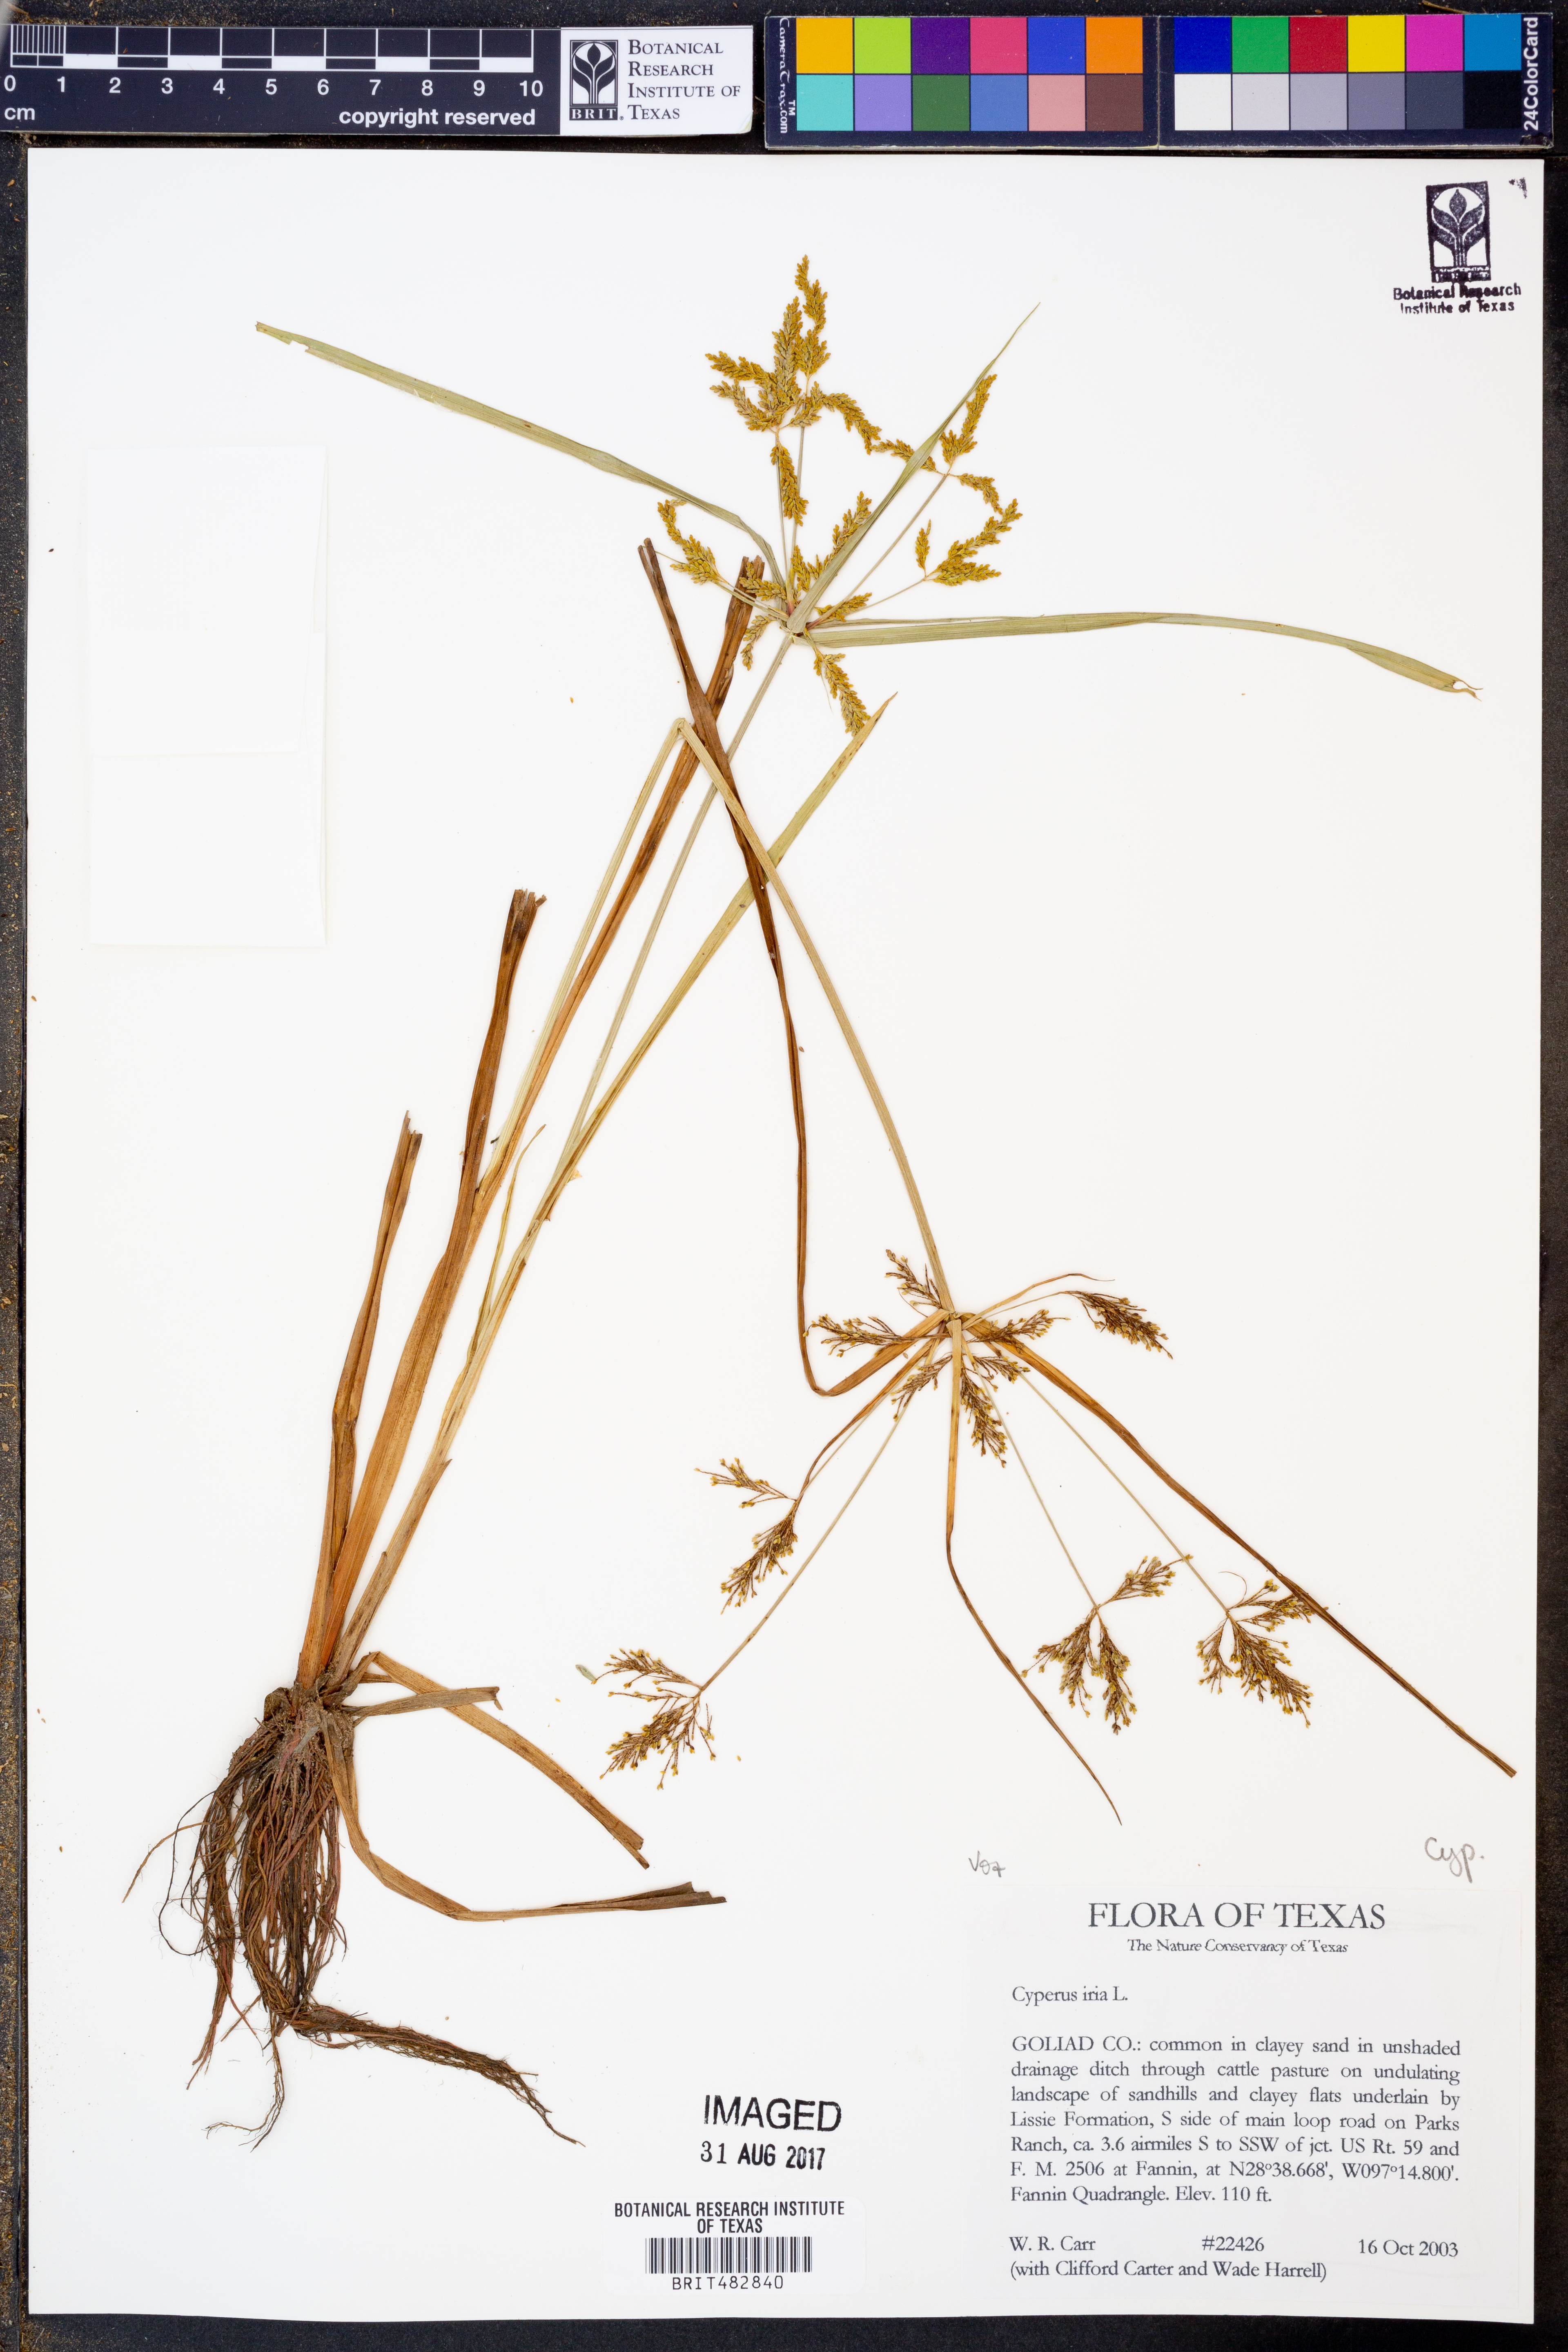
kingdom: Plantae
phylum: Tracheophyta
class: Liliopsida
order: Poales
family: Cyperaceae
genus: Cyperus
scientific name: Cyperus iria
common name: Ricefield flatsedge
